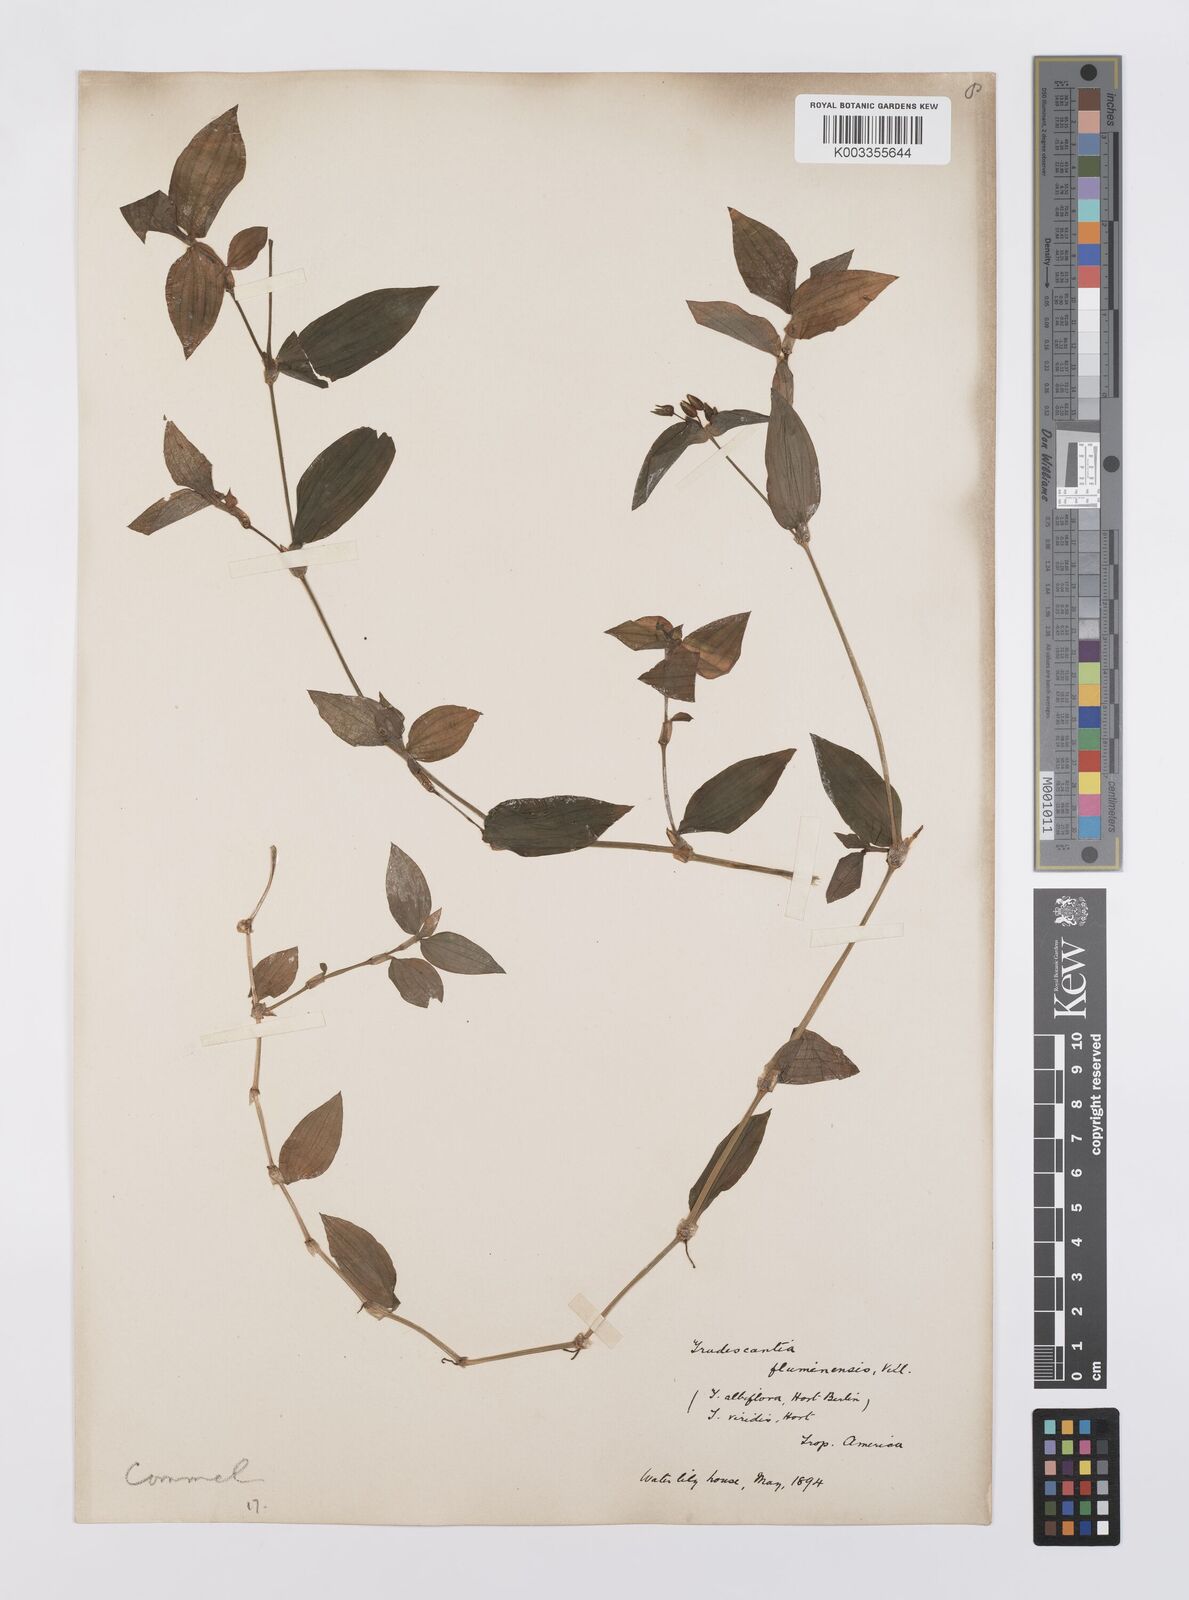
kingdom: Plantae
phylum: Tracheophyta
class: Liliopsida
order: Commelinales
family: Commelinaceae
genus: Tradescantia
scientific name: Tradescantia fluminensis
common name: Wandering-jew
